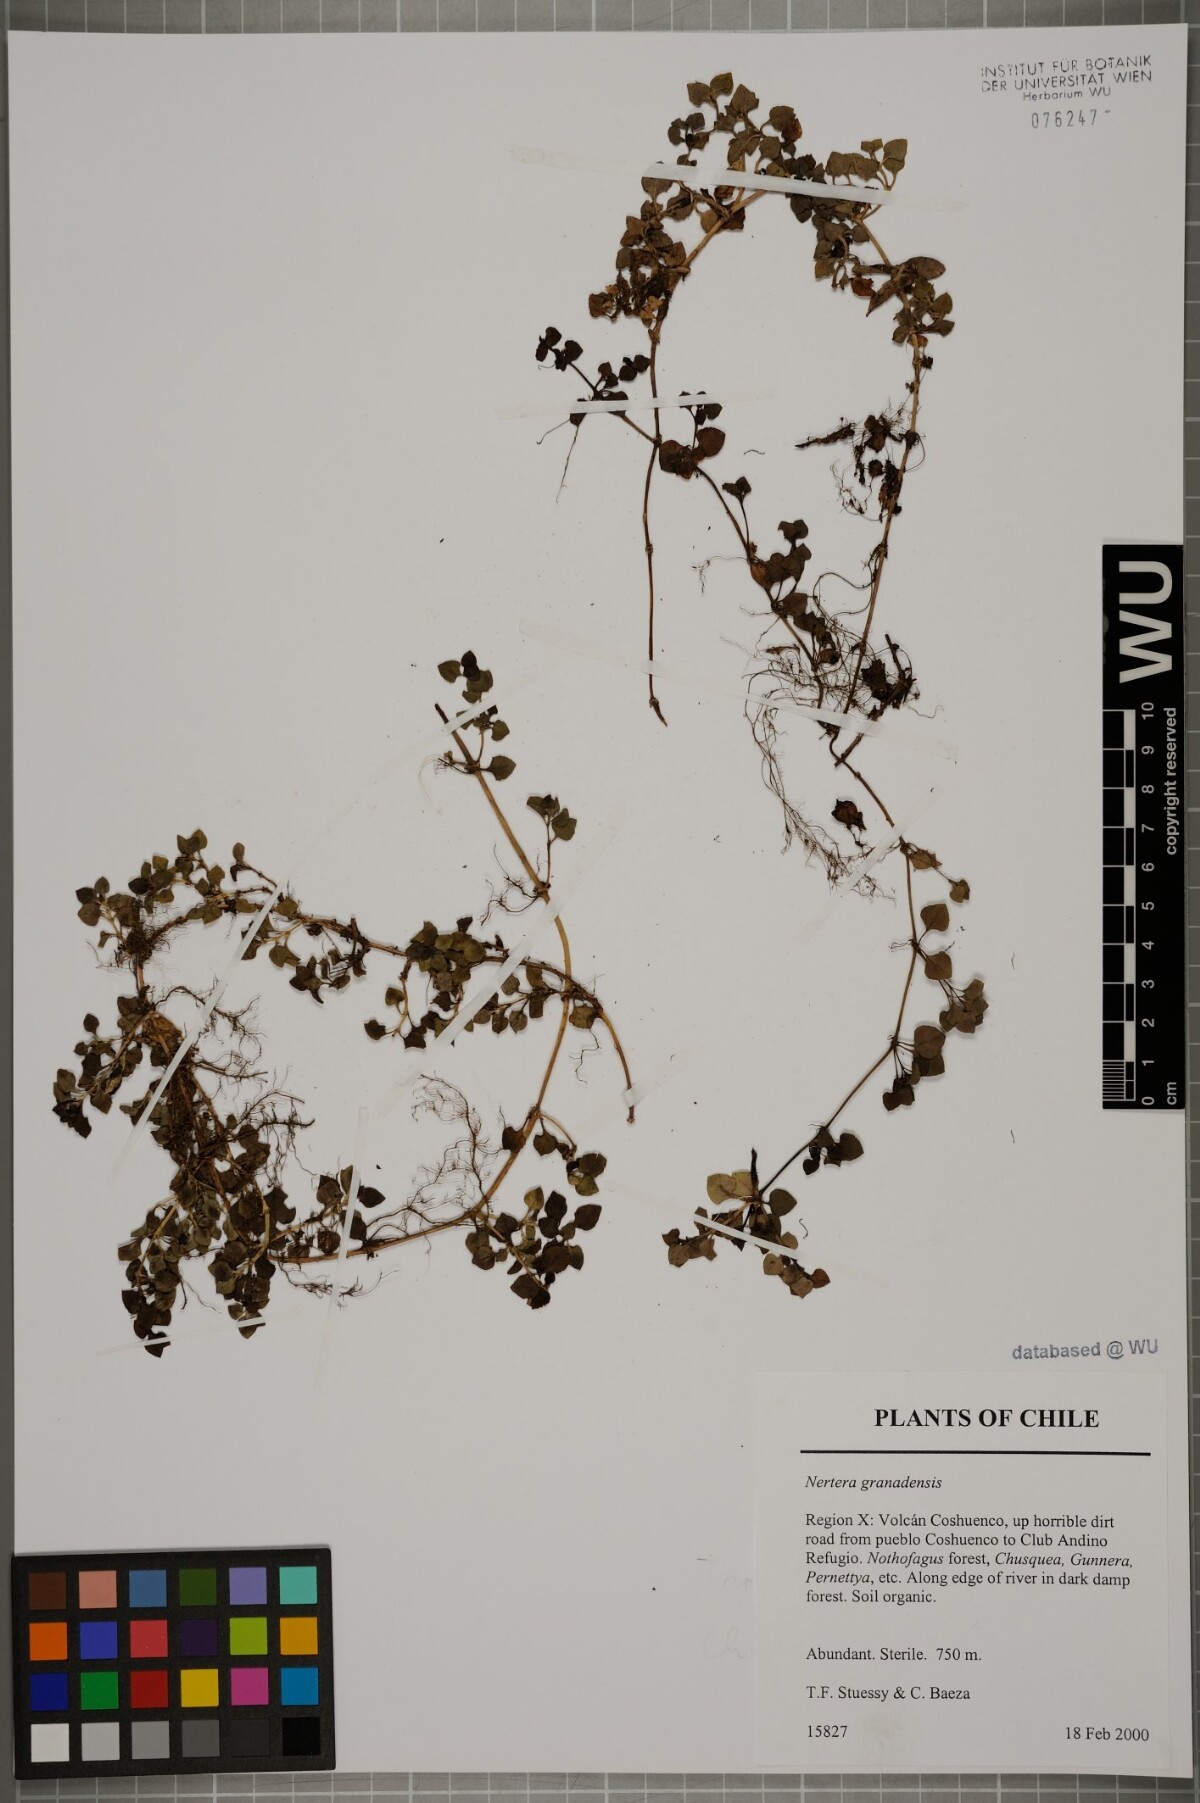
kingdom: Plantae
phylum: Tracheophyta
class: Magnoliopsida
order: Gentianales
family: Rubiaceae
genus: Nertera
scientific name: Nertera granadensis
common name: Beadplant
